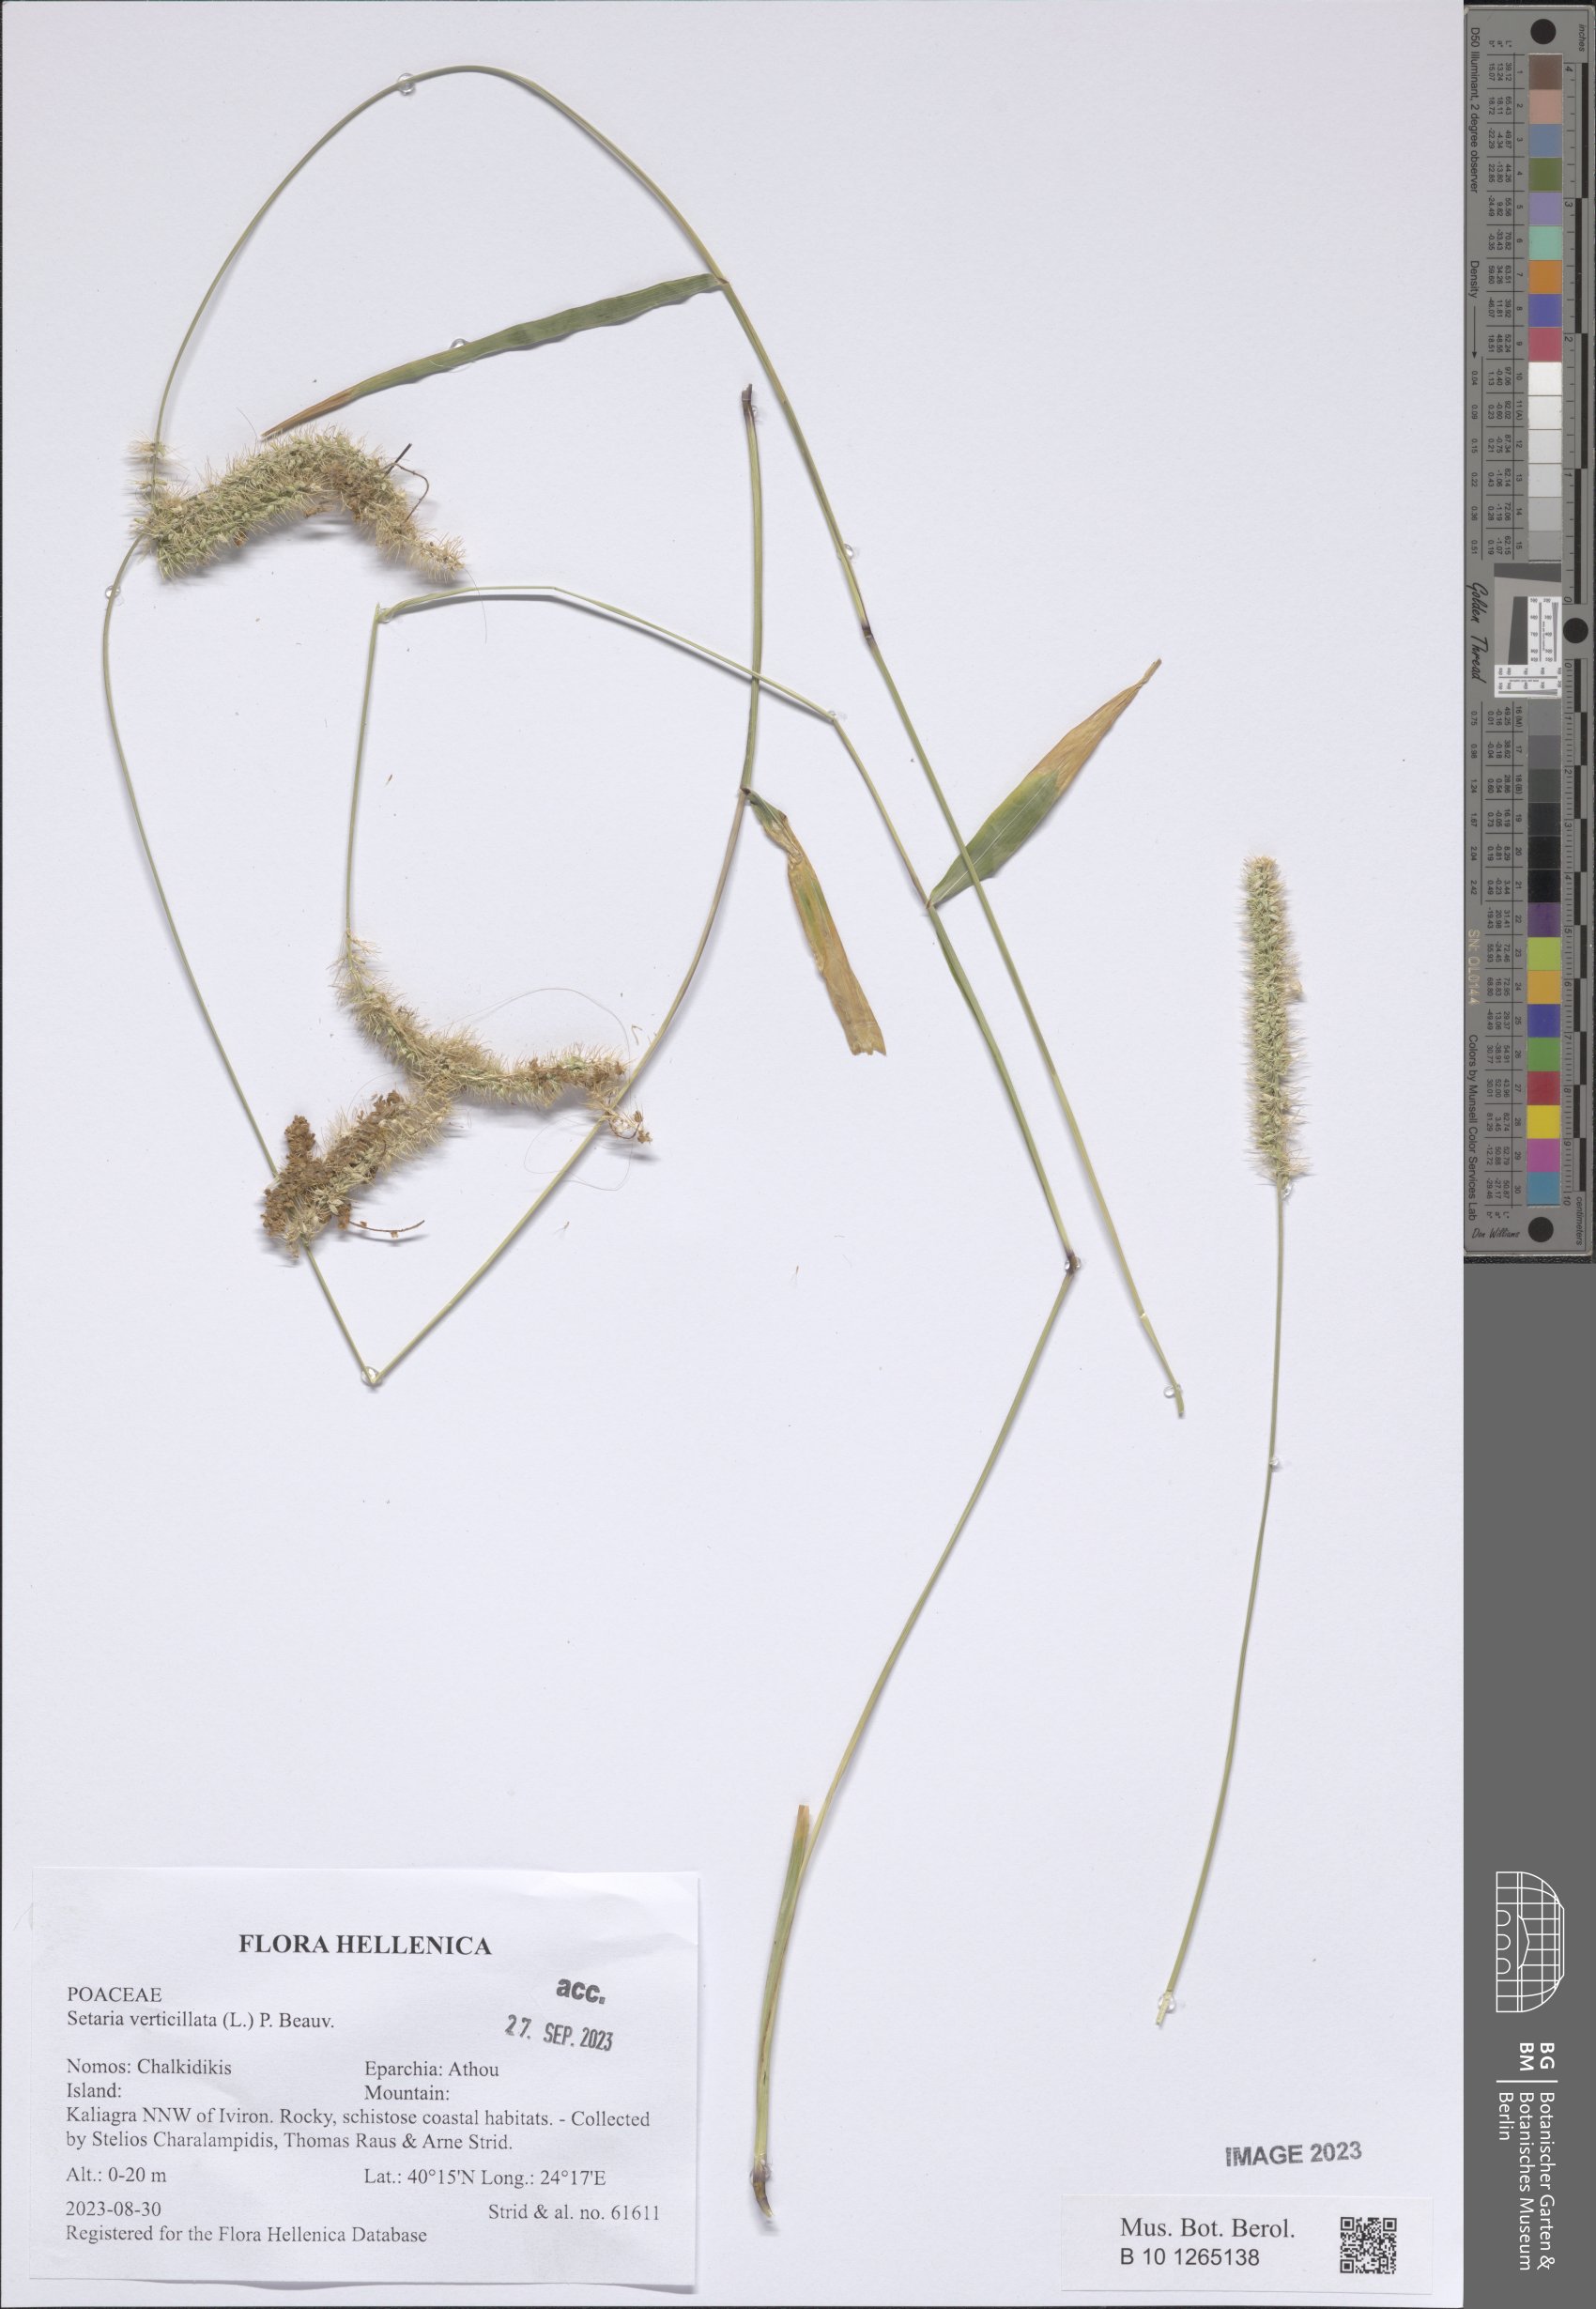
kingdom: Plantae
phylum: Tracheophyta
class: Liliopsida
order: Poales
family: Poaceae
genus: Setaria
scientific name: Setaria verticillata
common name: Hooked bristlegrass
